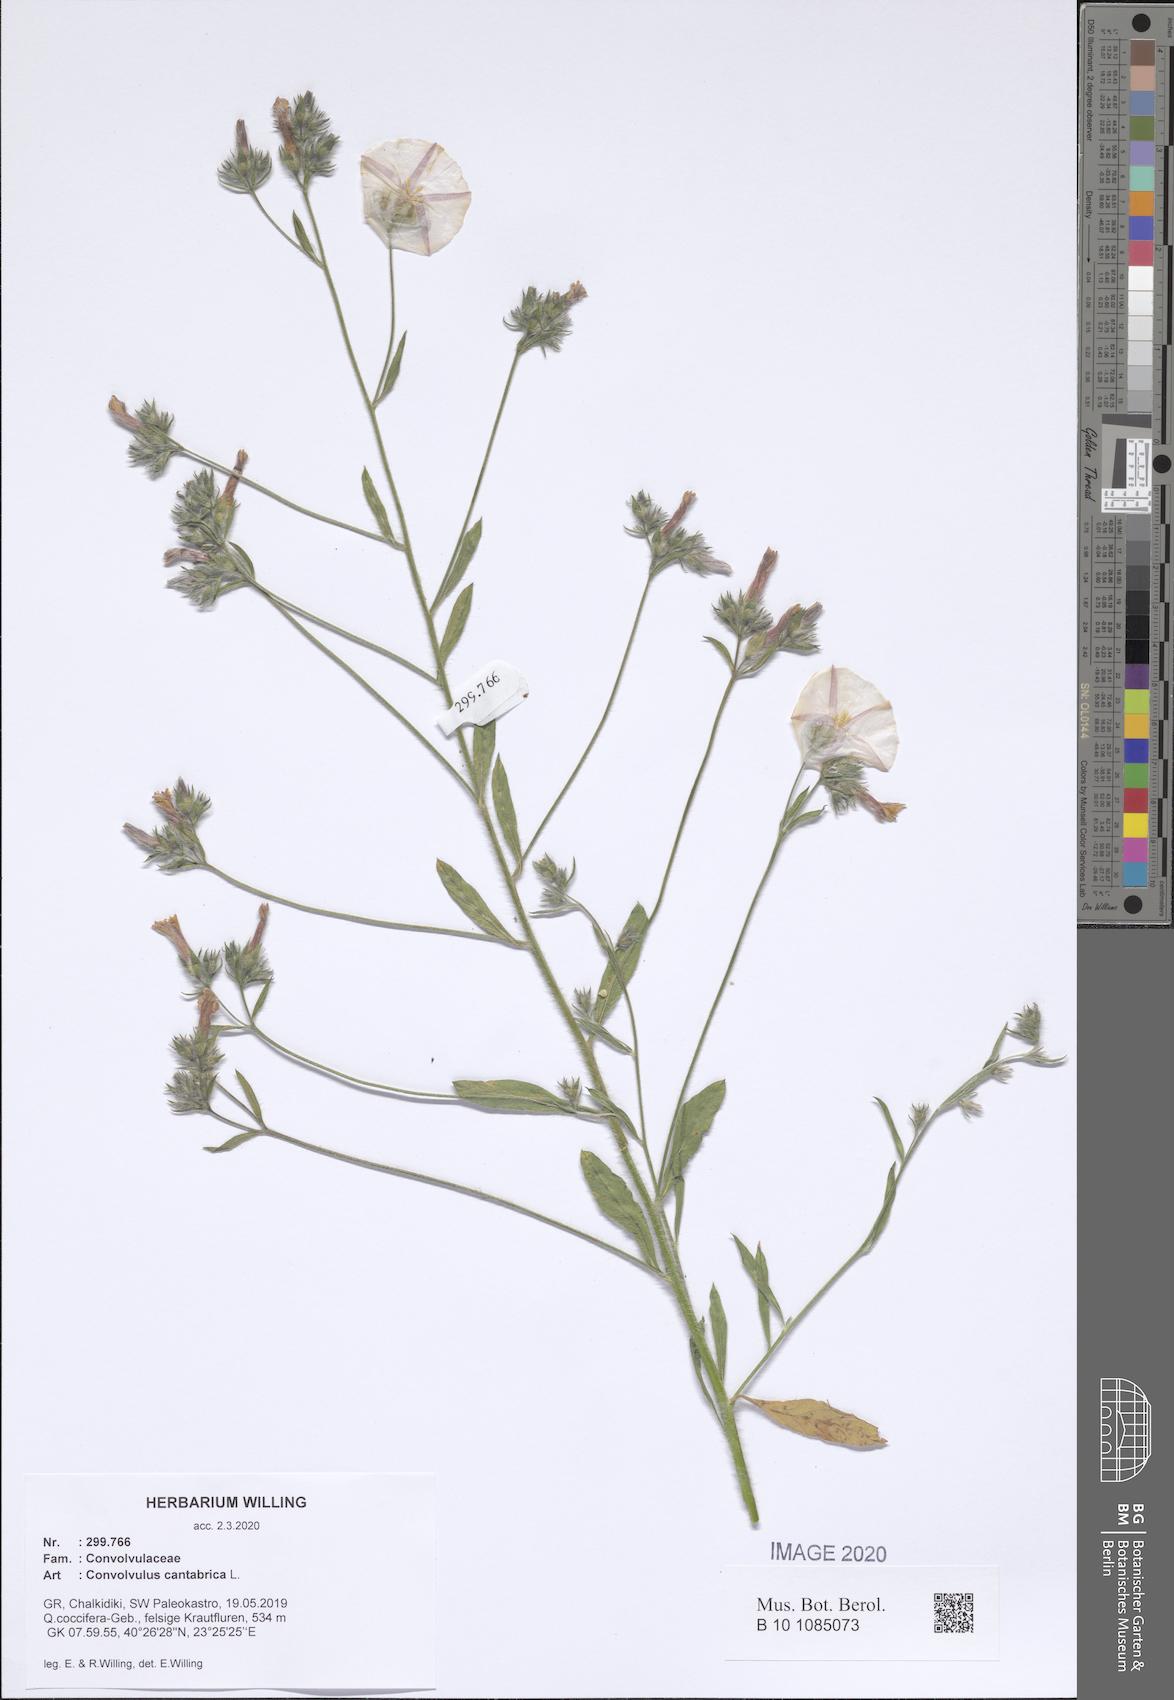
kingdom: Plantae
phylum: Tracheophyta
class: Magnoliopsida
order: Solanales
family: Convolvulaceae
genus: Convolvulus
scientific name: Convolvulus cantabrica
